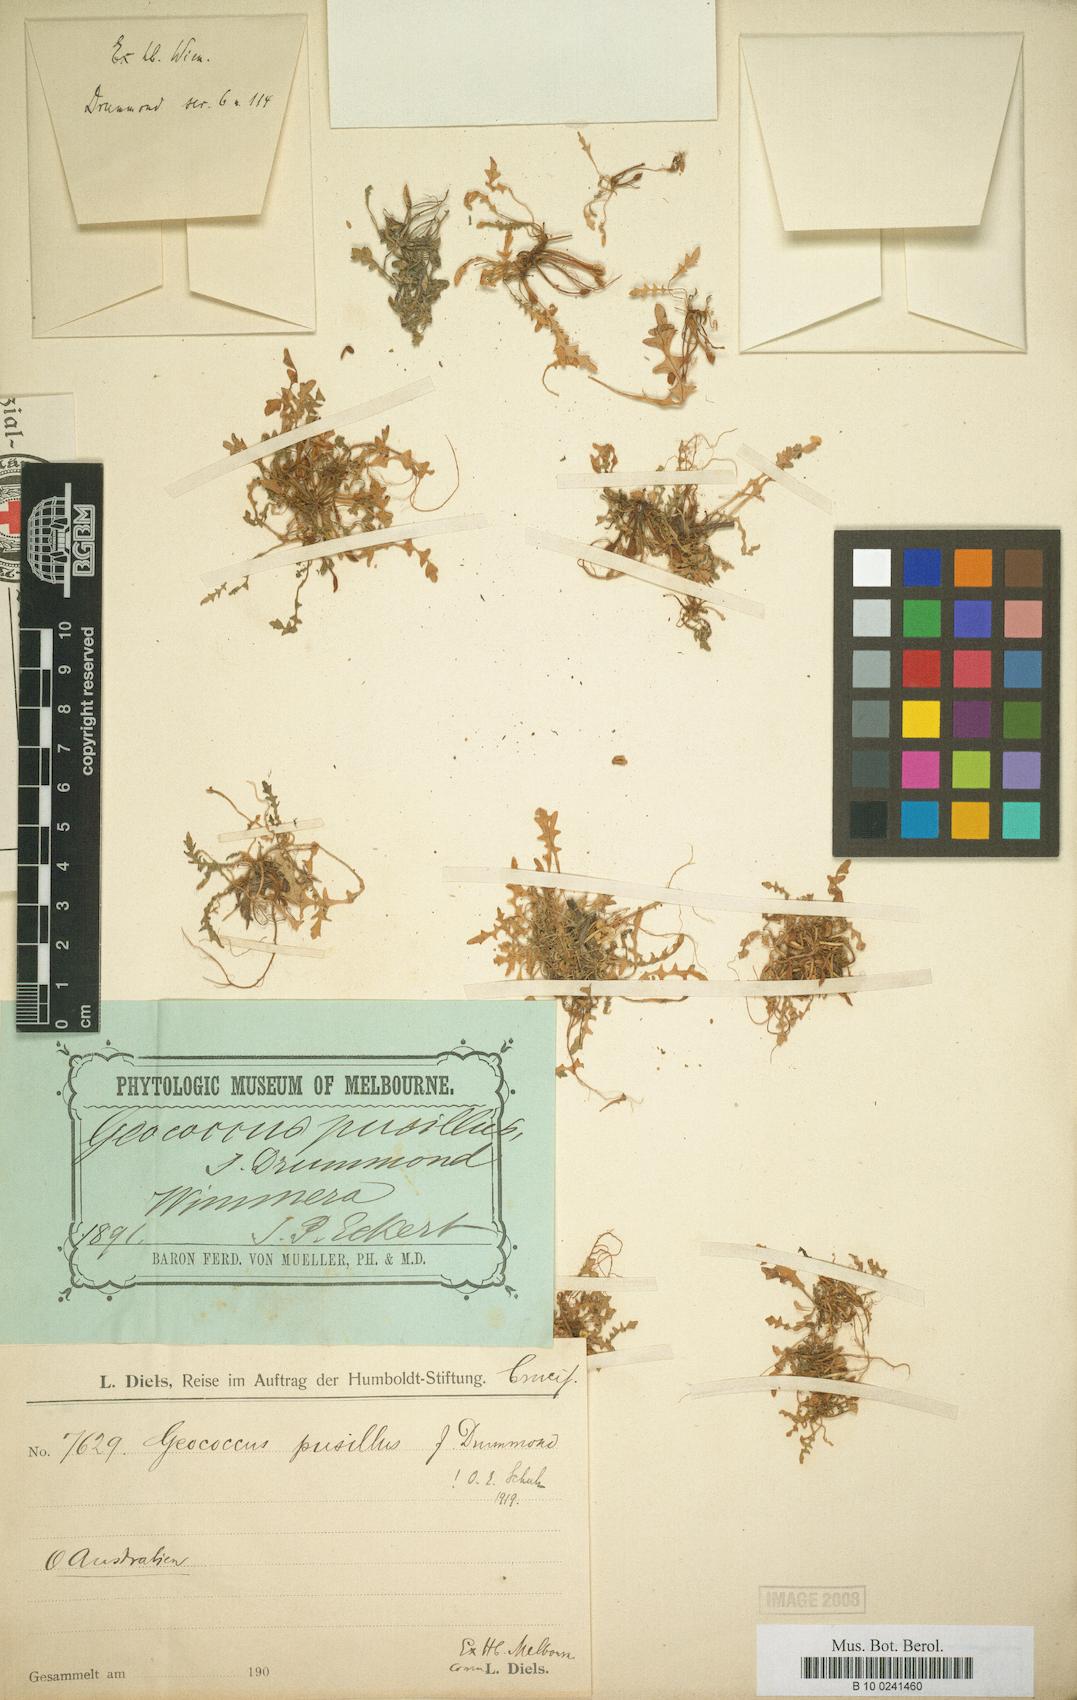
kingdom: Plantae
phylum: Tracheophyta
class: Magnoliopsida
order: Brassicales
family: Brassicaceae
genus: Geococcus
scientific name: Geococcus pusillus
